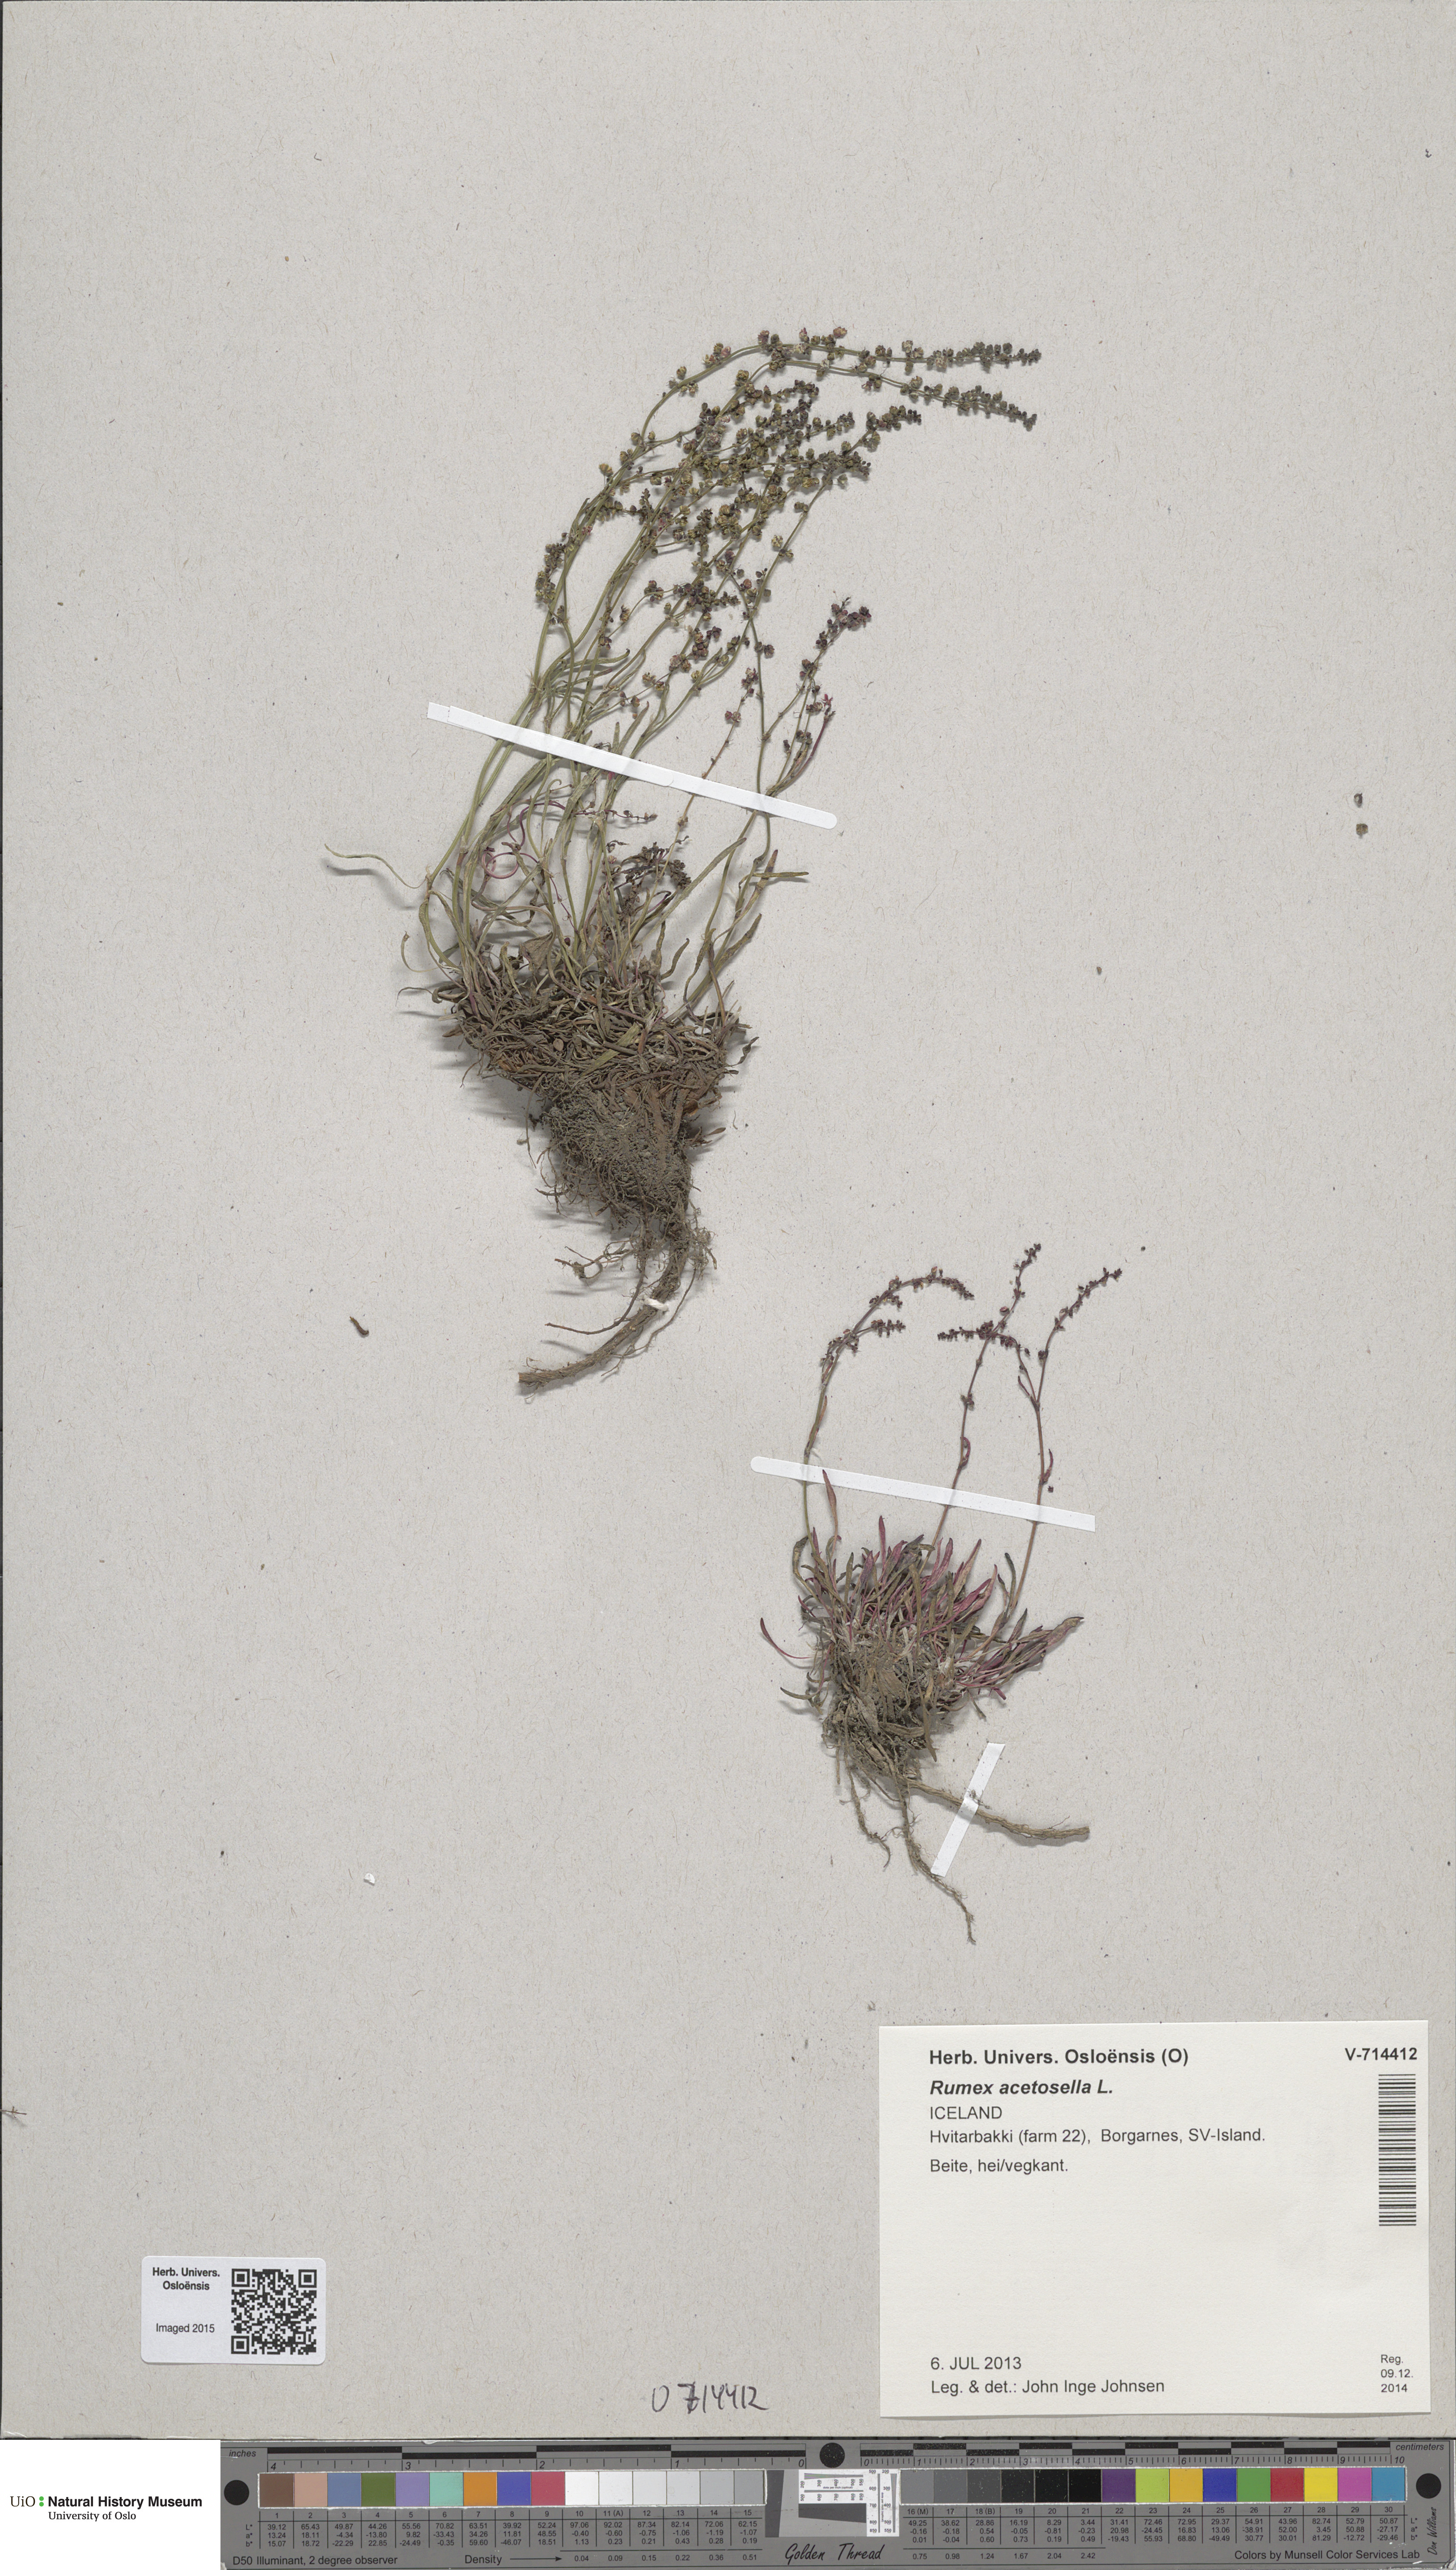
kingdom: Plantae
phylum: Tracheophyta
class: Magnoliopsida
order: Caryophyllales
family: Polygonaceae
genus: Rumex
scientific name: Rumex acetosella
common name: Common sheep sorrel
